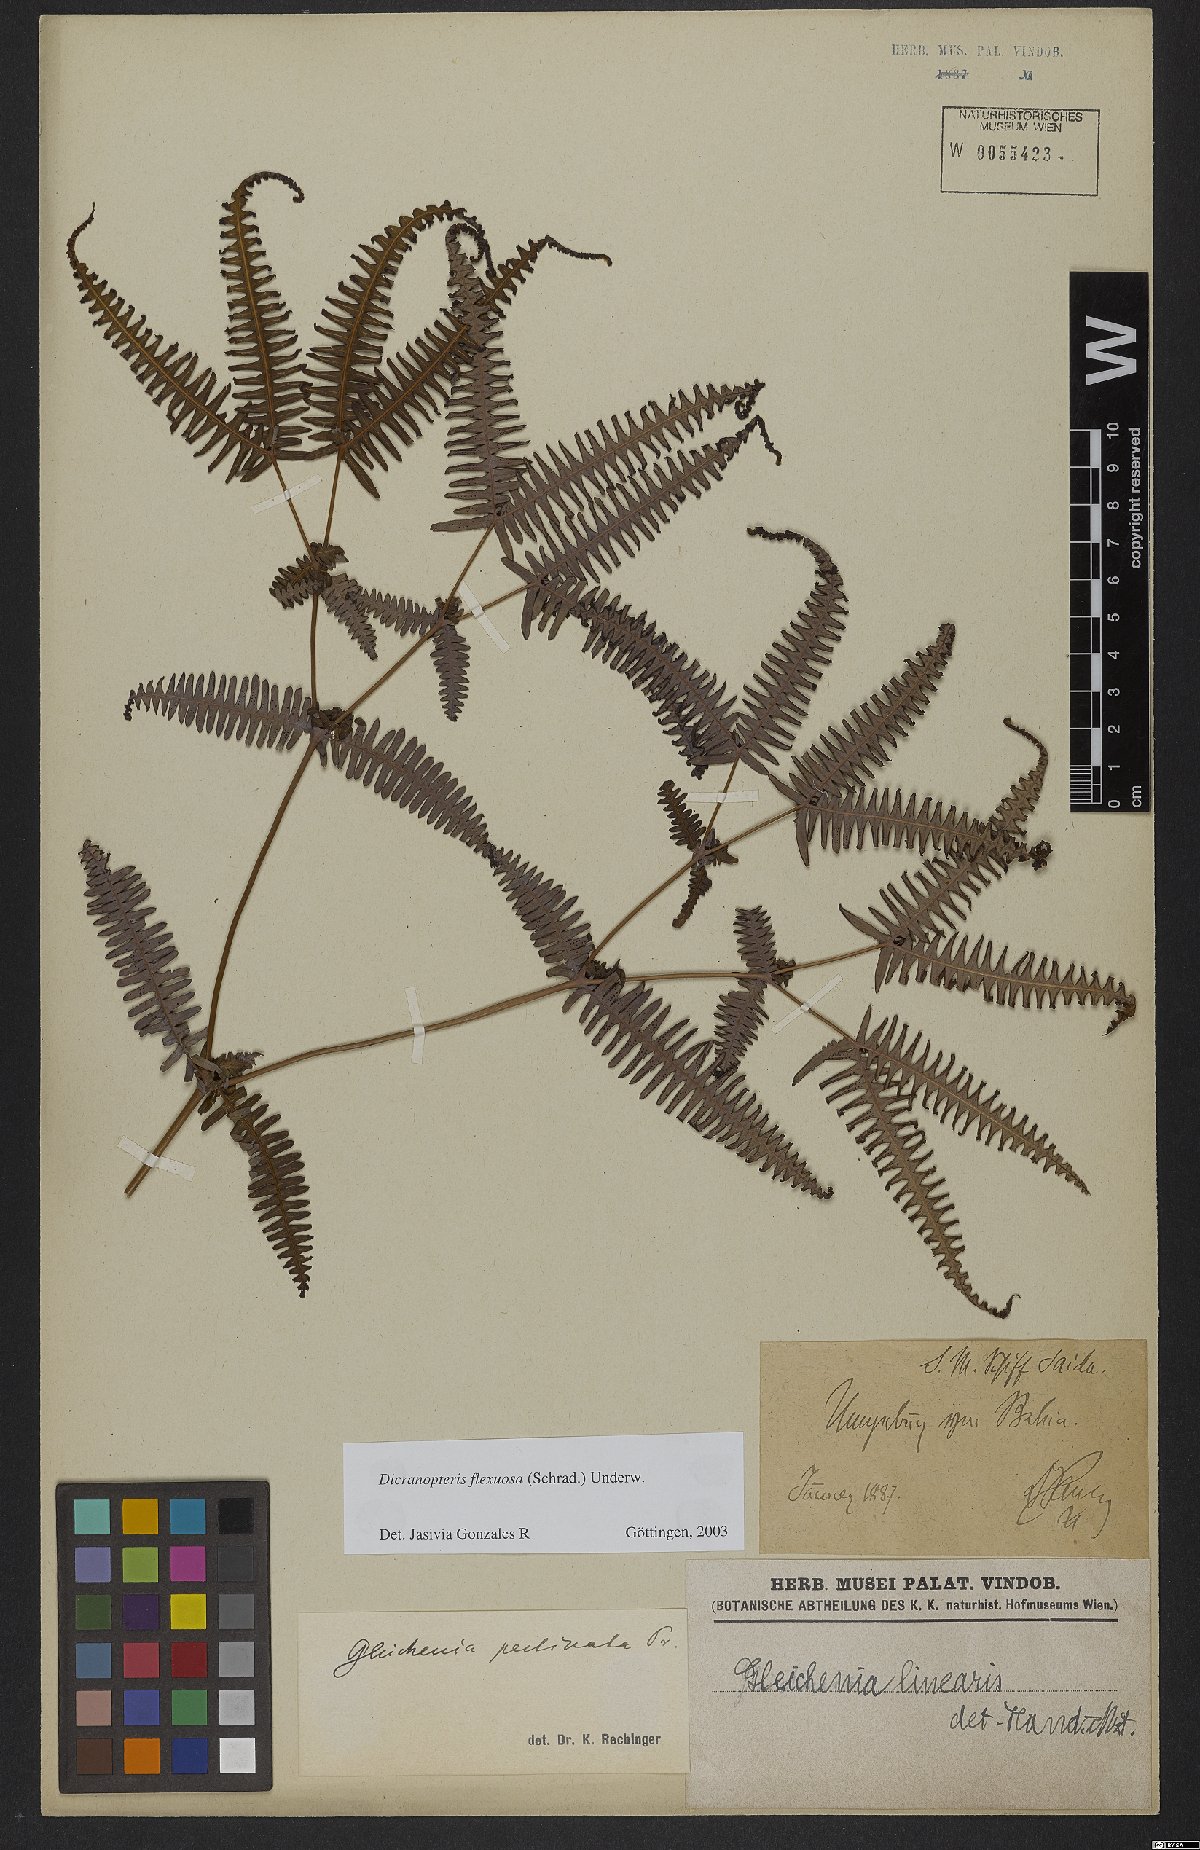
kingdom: Plantae
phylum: Tracheophyta
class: Polypodiopsida
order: Gleicheniales
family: Gleicheniaceae
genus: Dicranopteris
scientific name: Dicranopteris flexuosa
